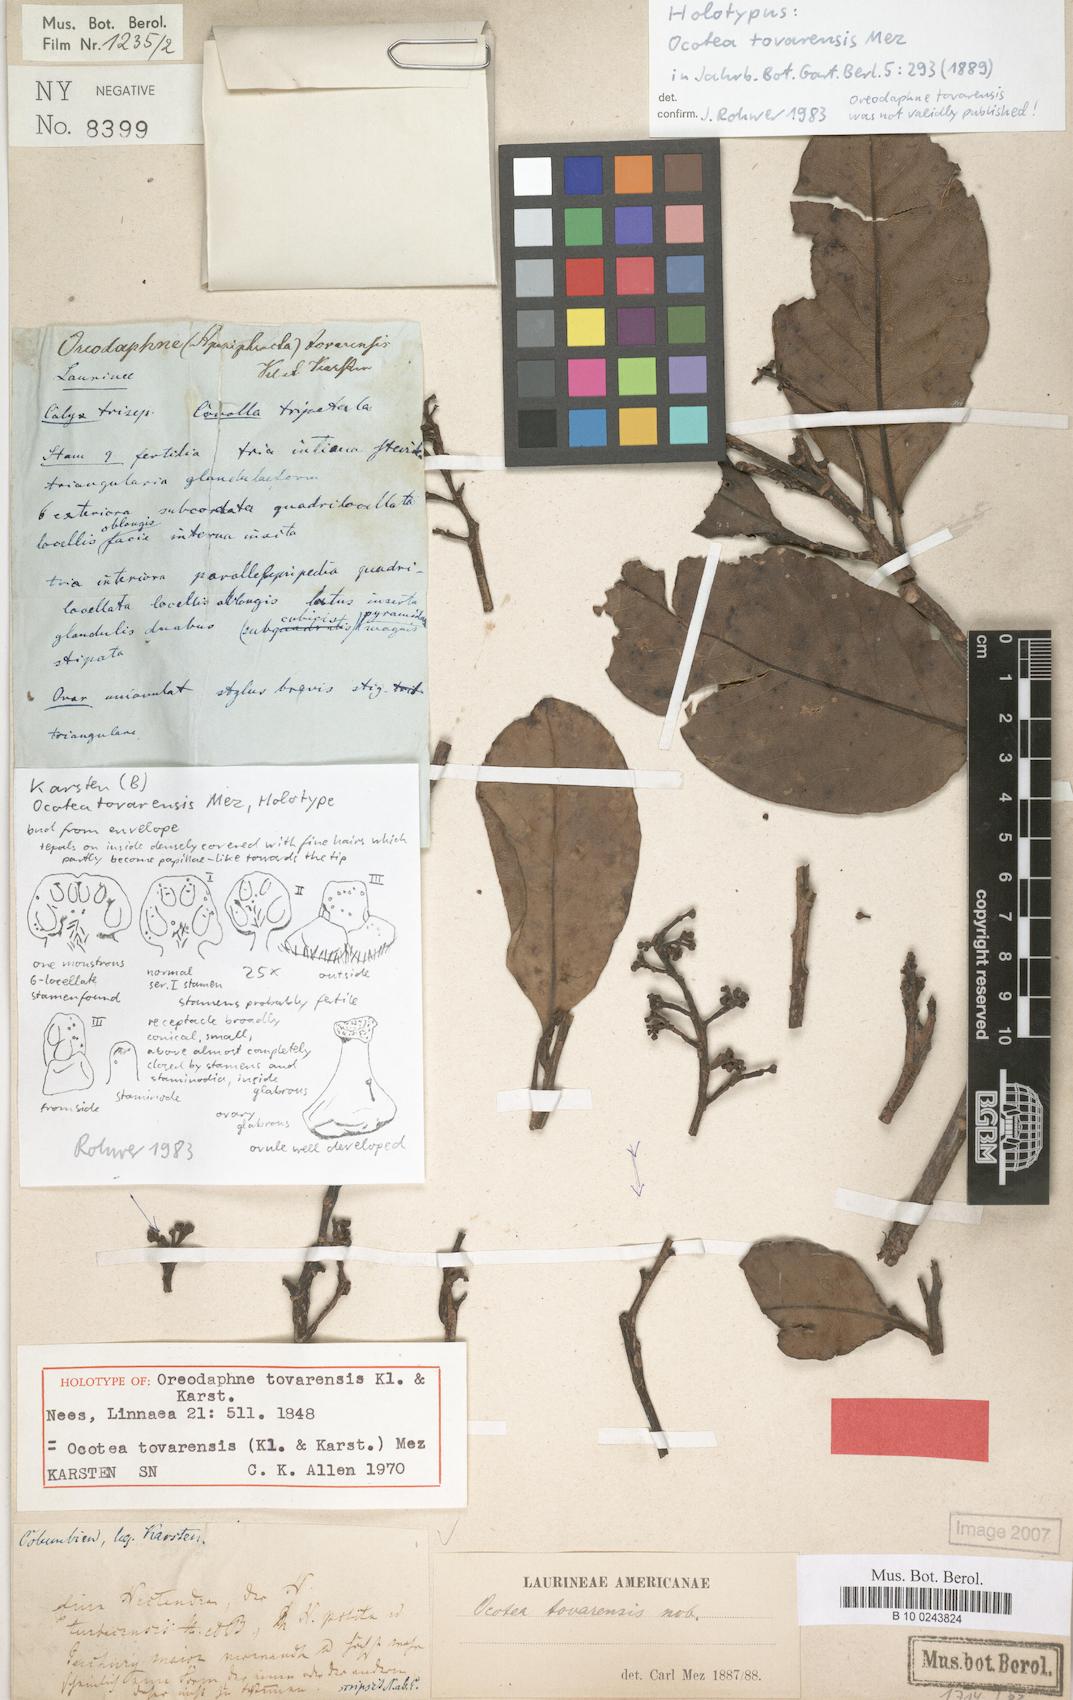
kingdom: Plantae
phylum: Tracheophyta
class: Magnoliopsida
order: Laurales
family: Lauraceae
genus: Ocotea
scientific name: Ocotea tovarensis
